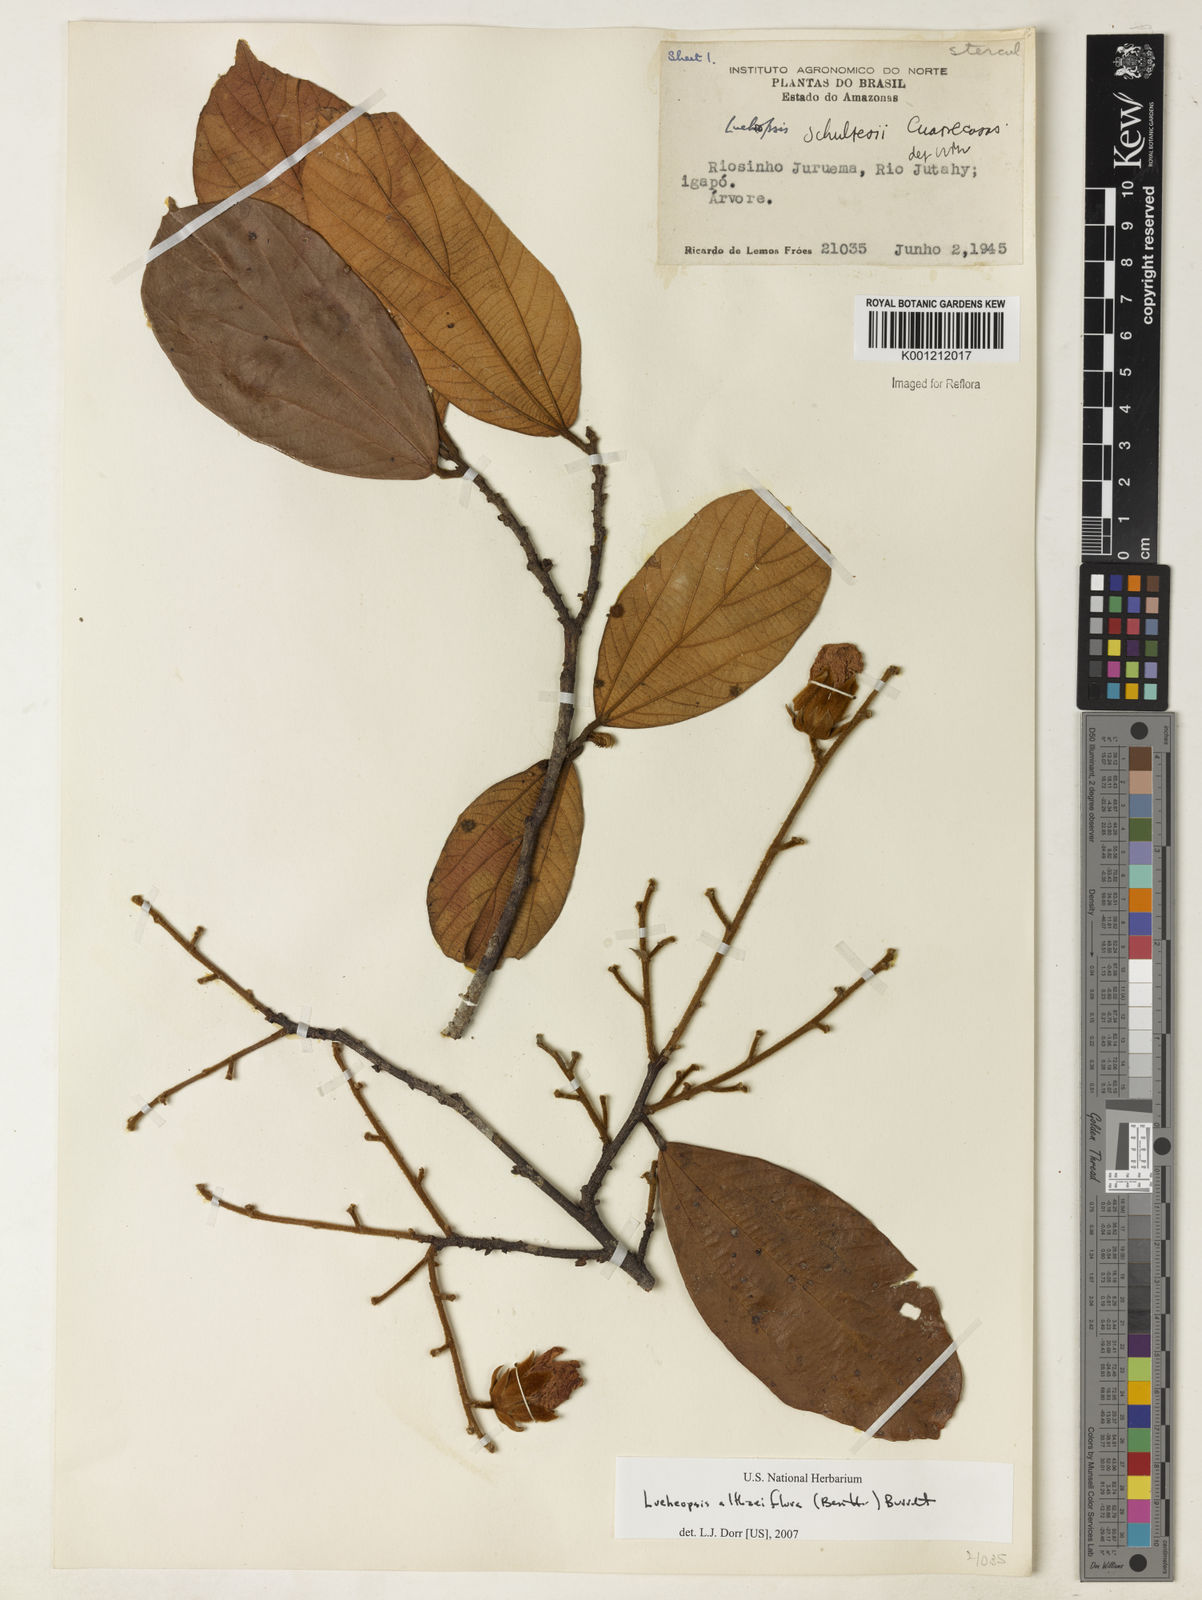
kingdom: Plantae
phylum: Tracheophyta
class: Magnoliopsida
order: Malvales
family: Malvaceae
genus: Lueheopsis
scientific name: Lueheopsis althaeiflora
